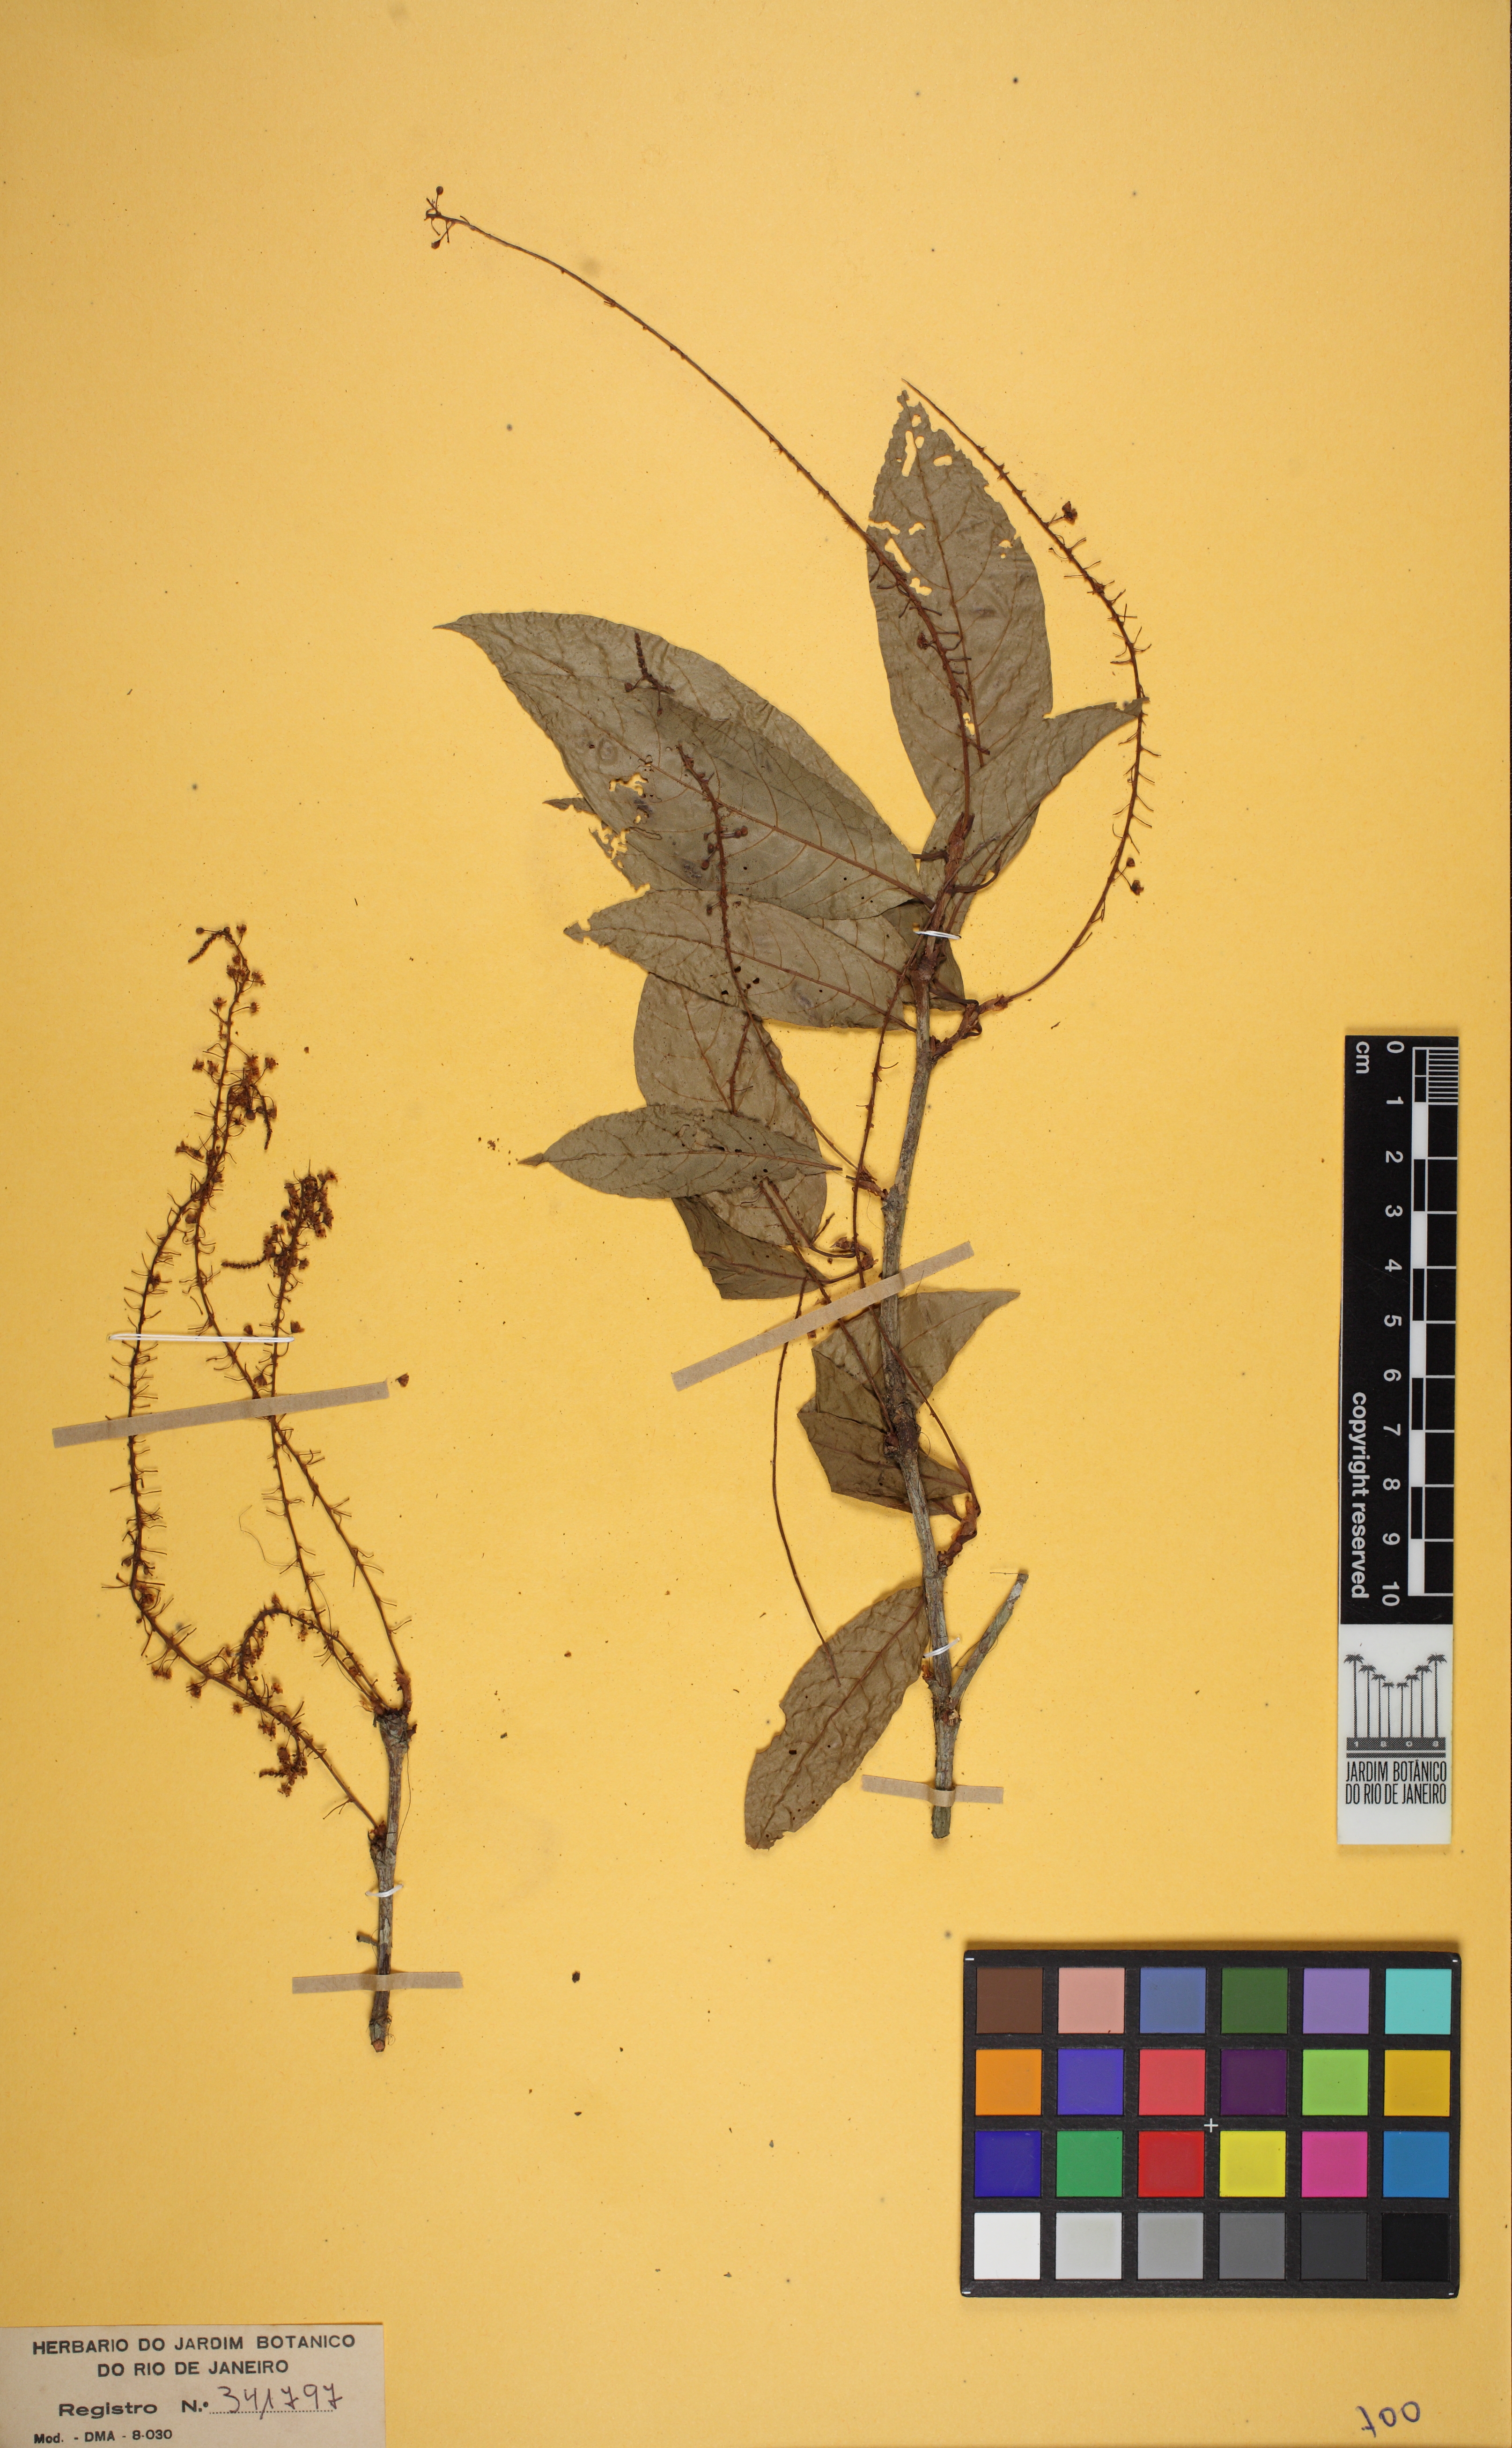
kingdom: Plantae
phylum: Tracheophyta
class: Magnoliopsida
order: Caryophyllales
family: Polygonaceae
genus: Coccoloba
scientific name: Coccoloba
